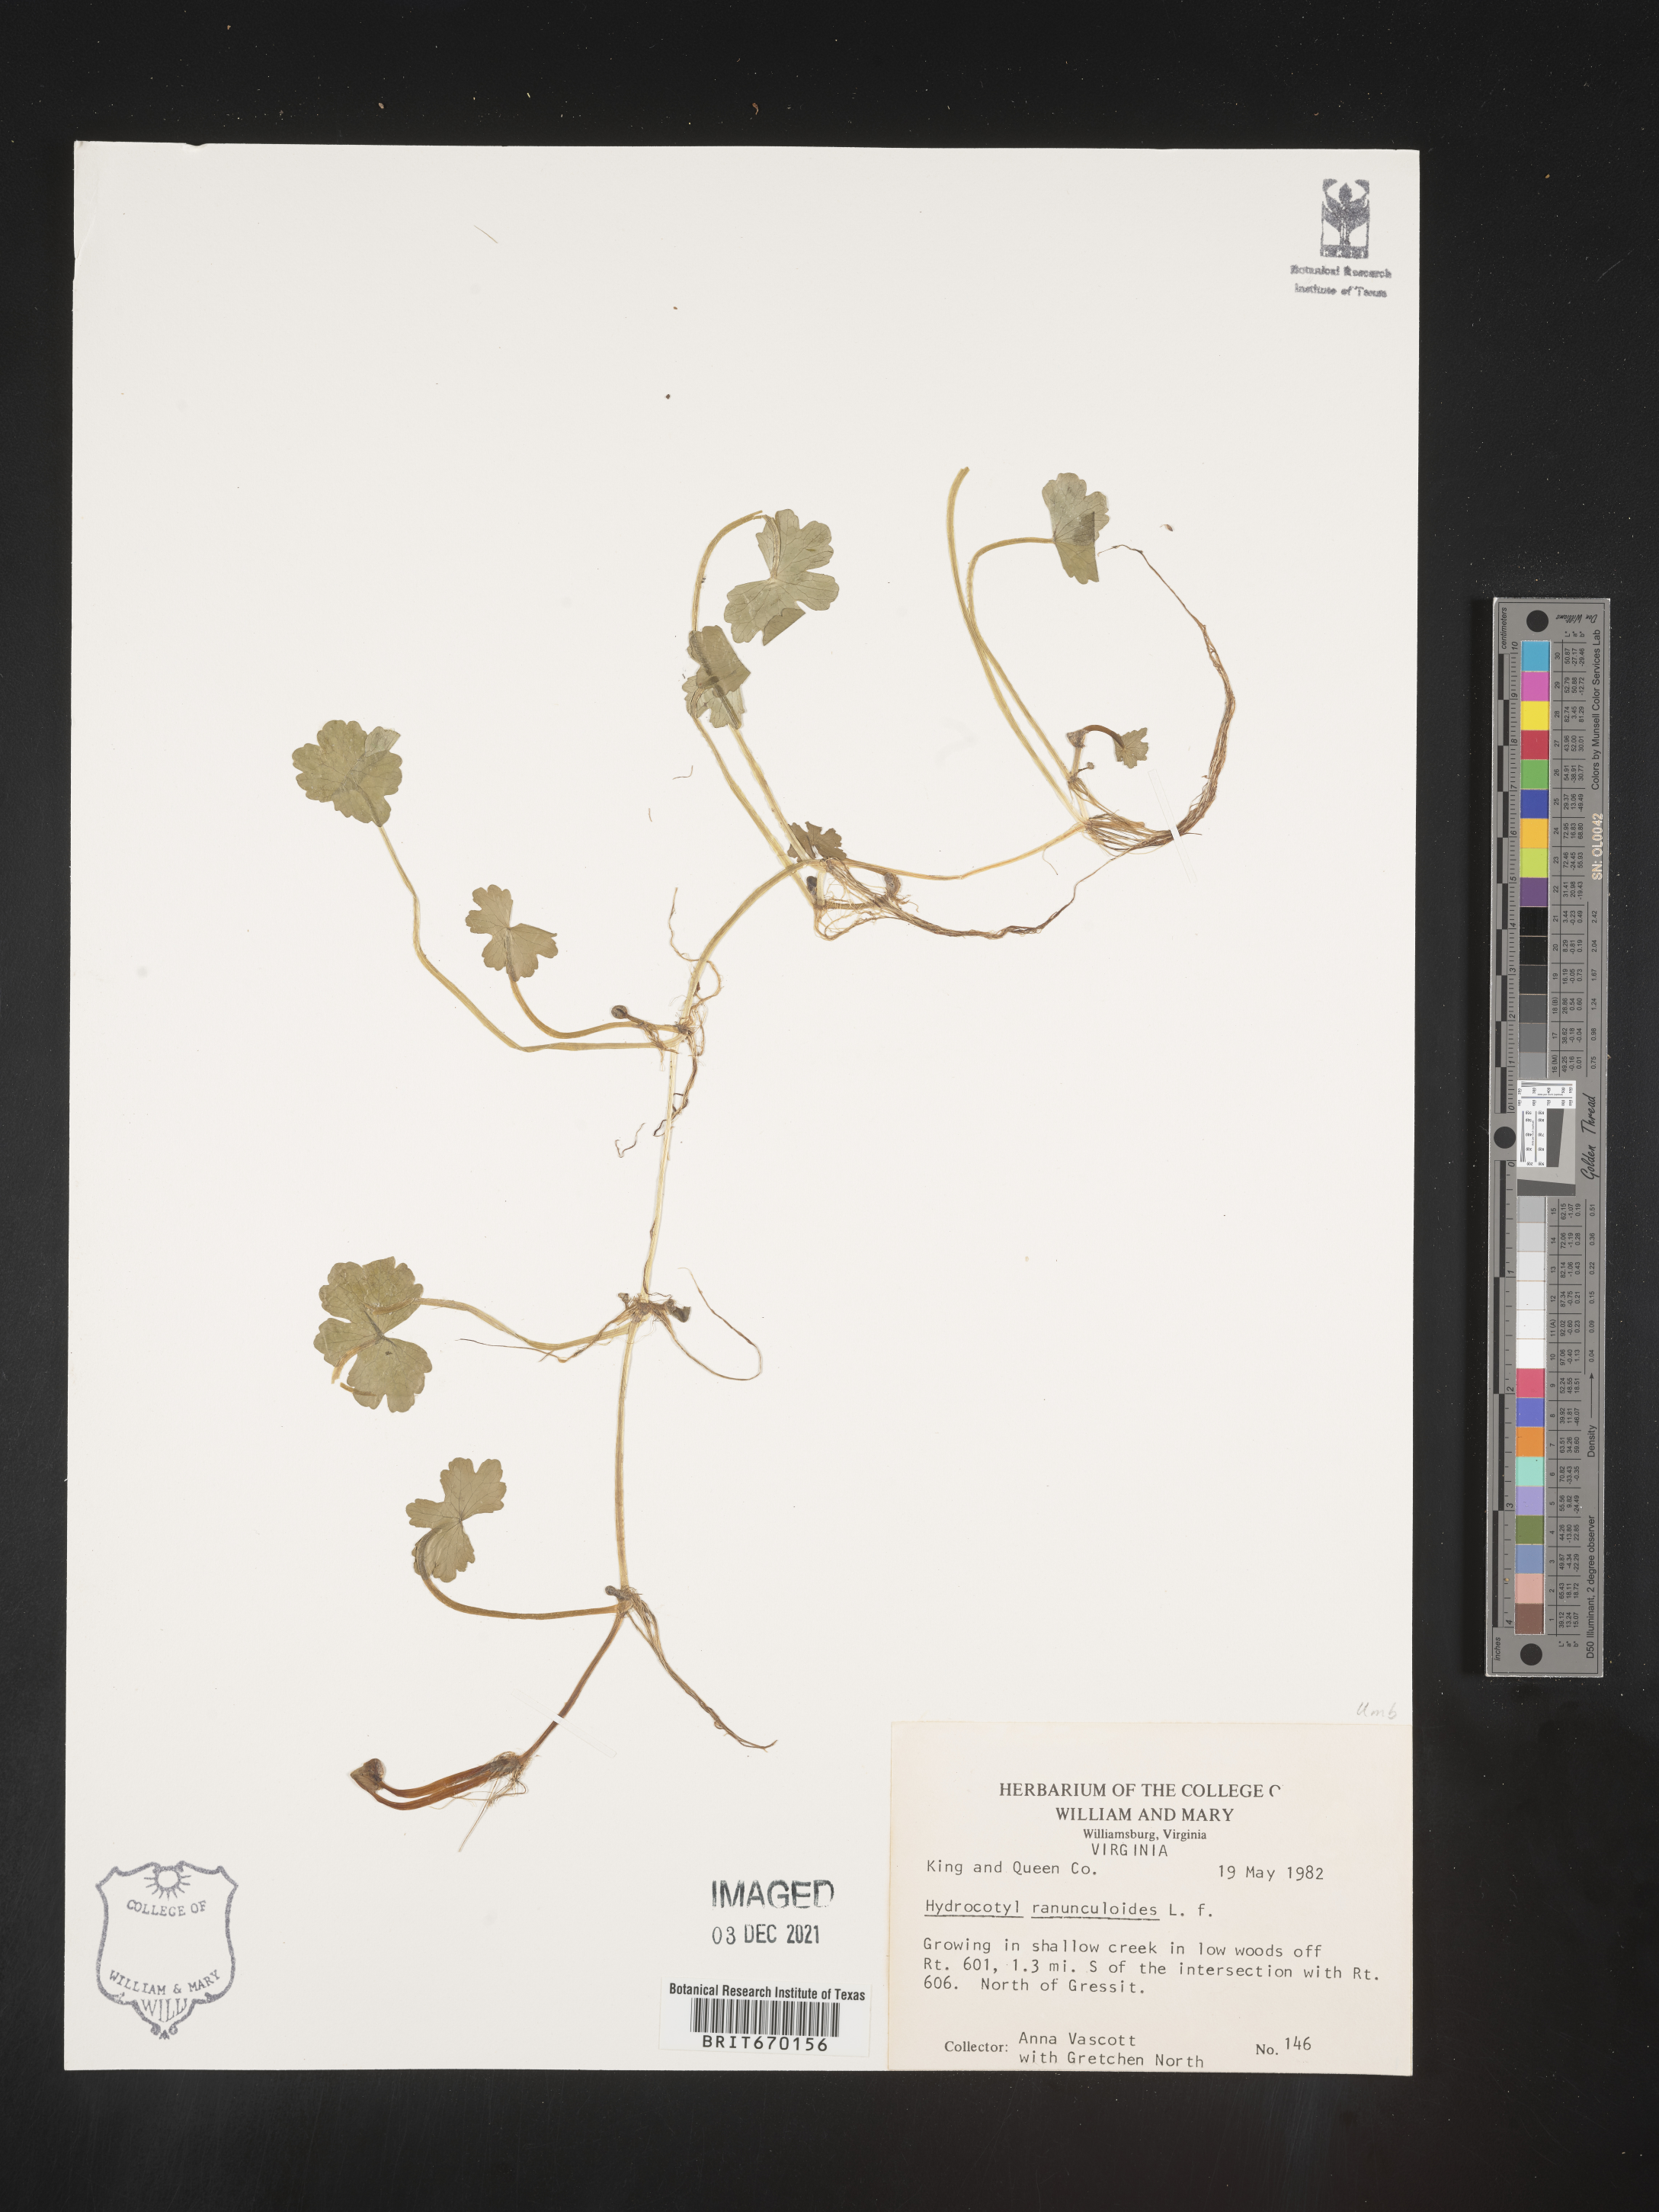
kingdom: Plantae
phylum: Tracheophyta
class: Magnoliopsida
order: Apiales
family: Araliaceae
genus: Hydrocotyle
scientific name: Hydrocotyle ranunculoides
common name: Floating pennywort
